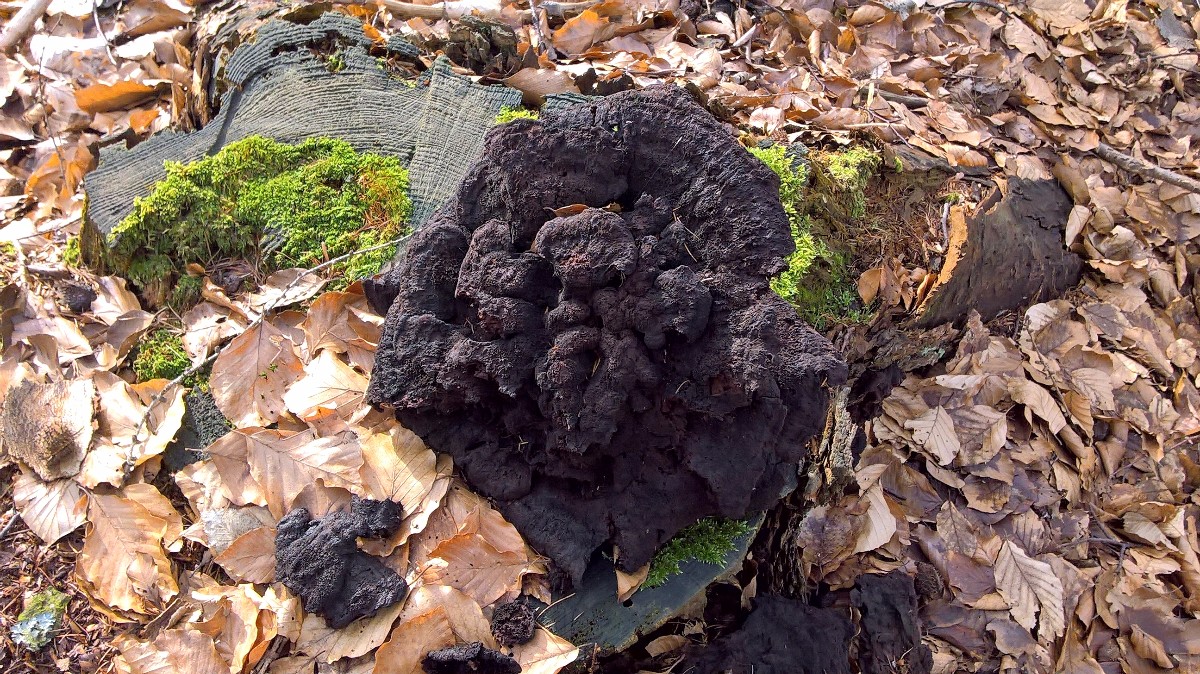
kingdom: Fungi
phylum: Basidiomycota
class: Agaricomycetes
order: Polyporales
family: Laetiporaceae
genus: Phaeolus
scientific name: Phaeolus schweinitzii
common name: brunporesvamp
